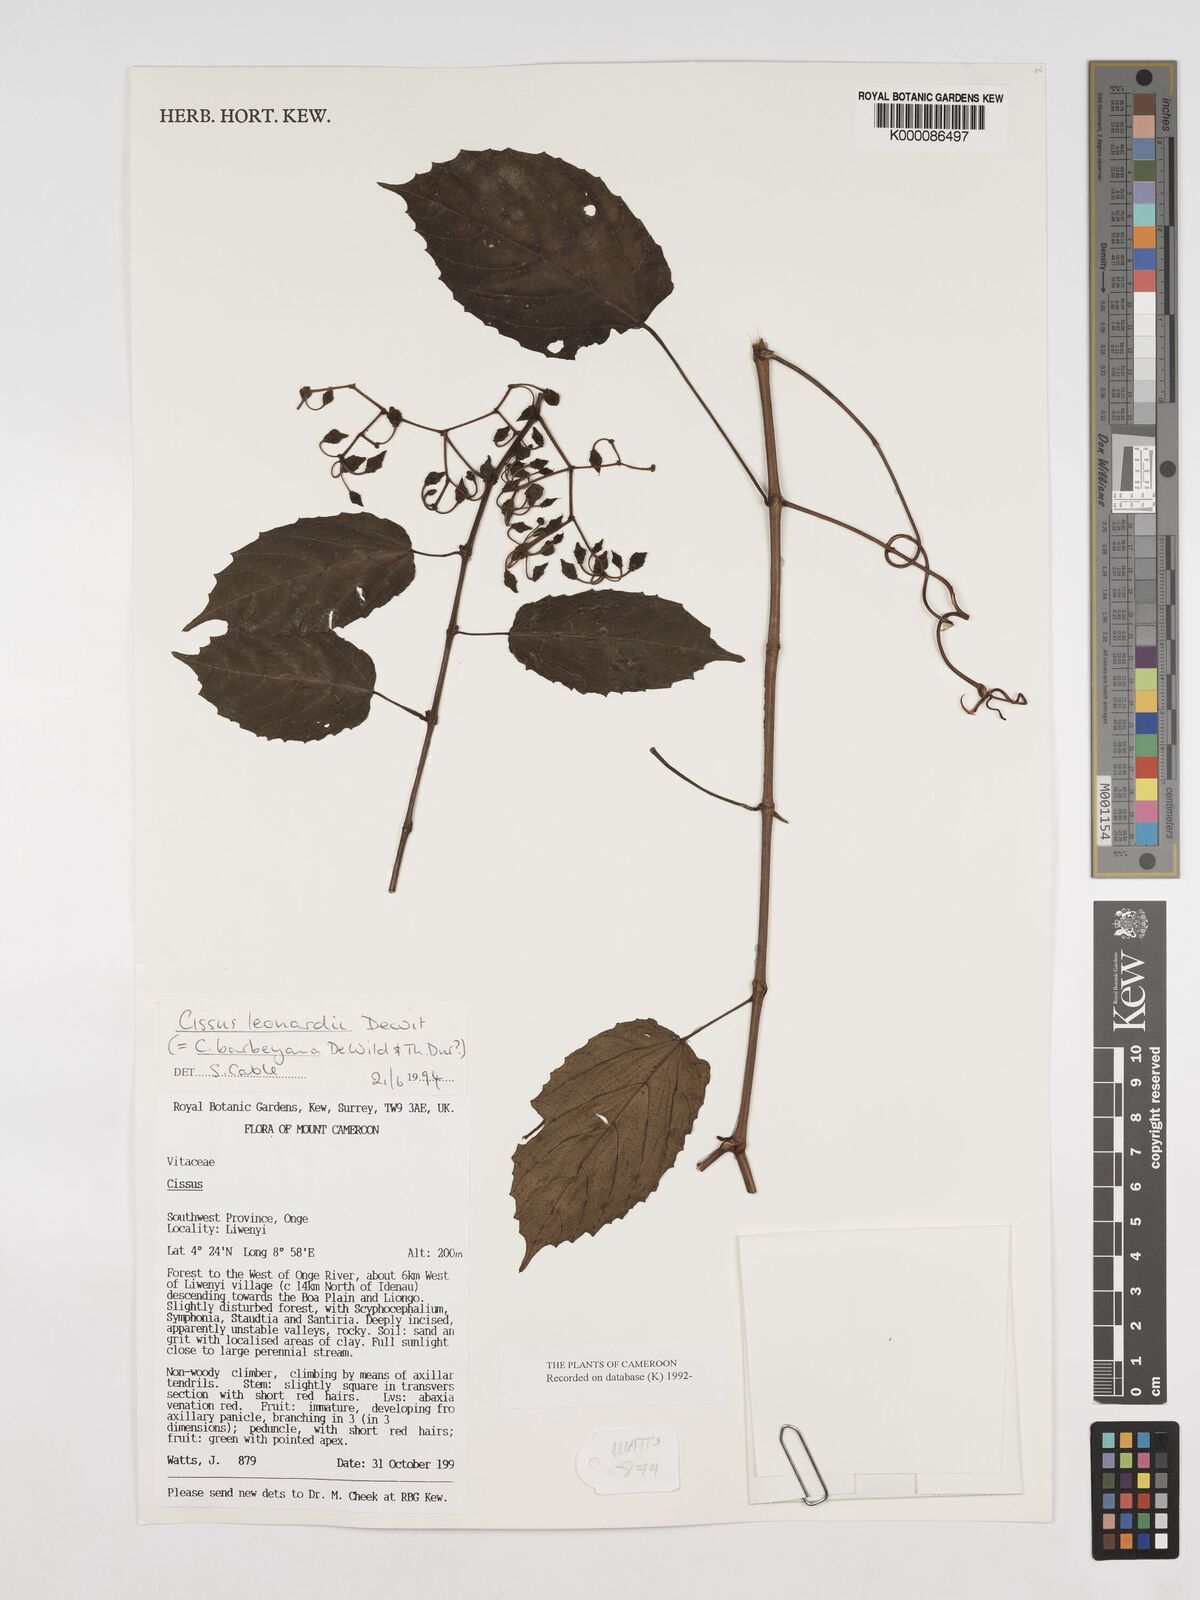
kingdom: Plantae
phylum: Tracheophyta
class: Magnoliopsida
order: Vitales
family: Vitaceae
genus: Cissus
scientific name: Cissus leonardii
